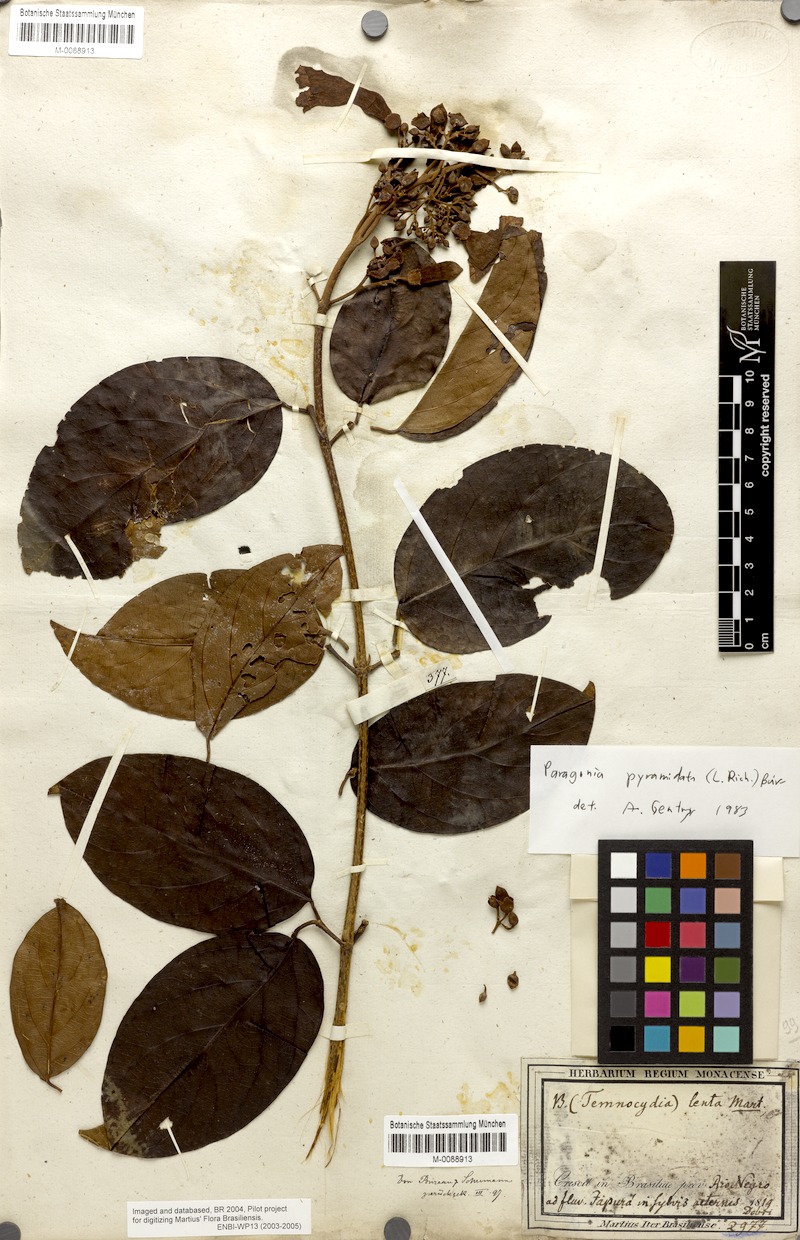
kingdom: Plantae
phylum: Tracheophyta
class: Magnoliopsida
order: Lamiales
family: Bignoniaceae
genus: Tanaecium
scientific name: Tanaecium pyramidatum
